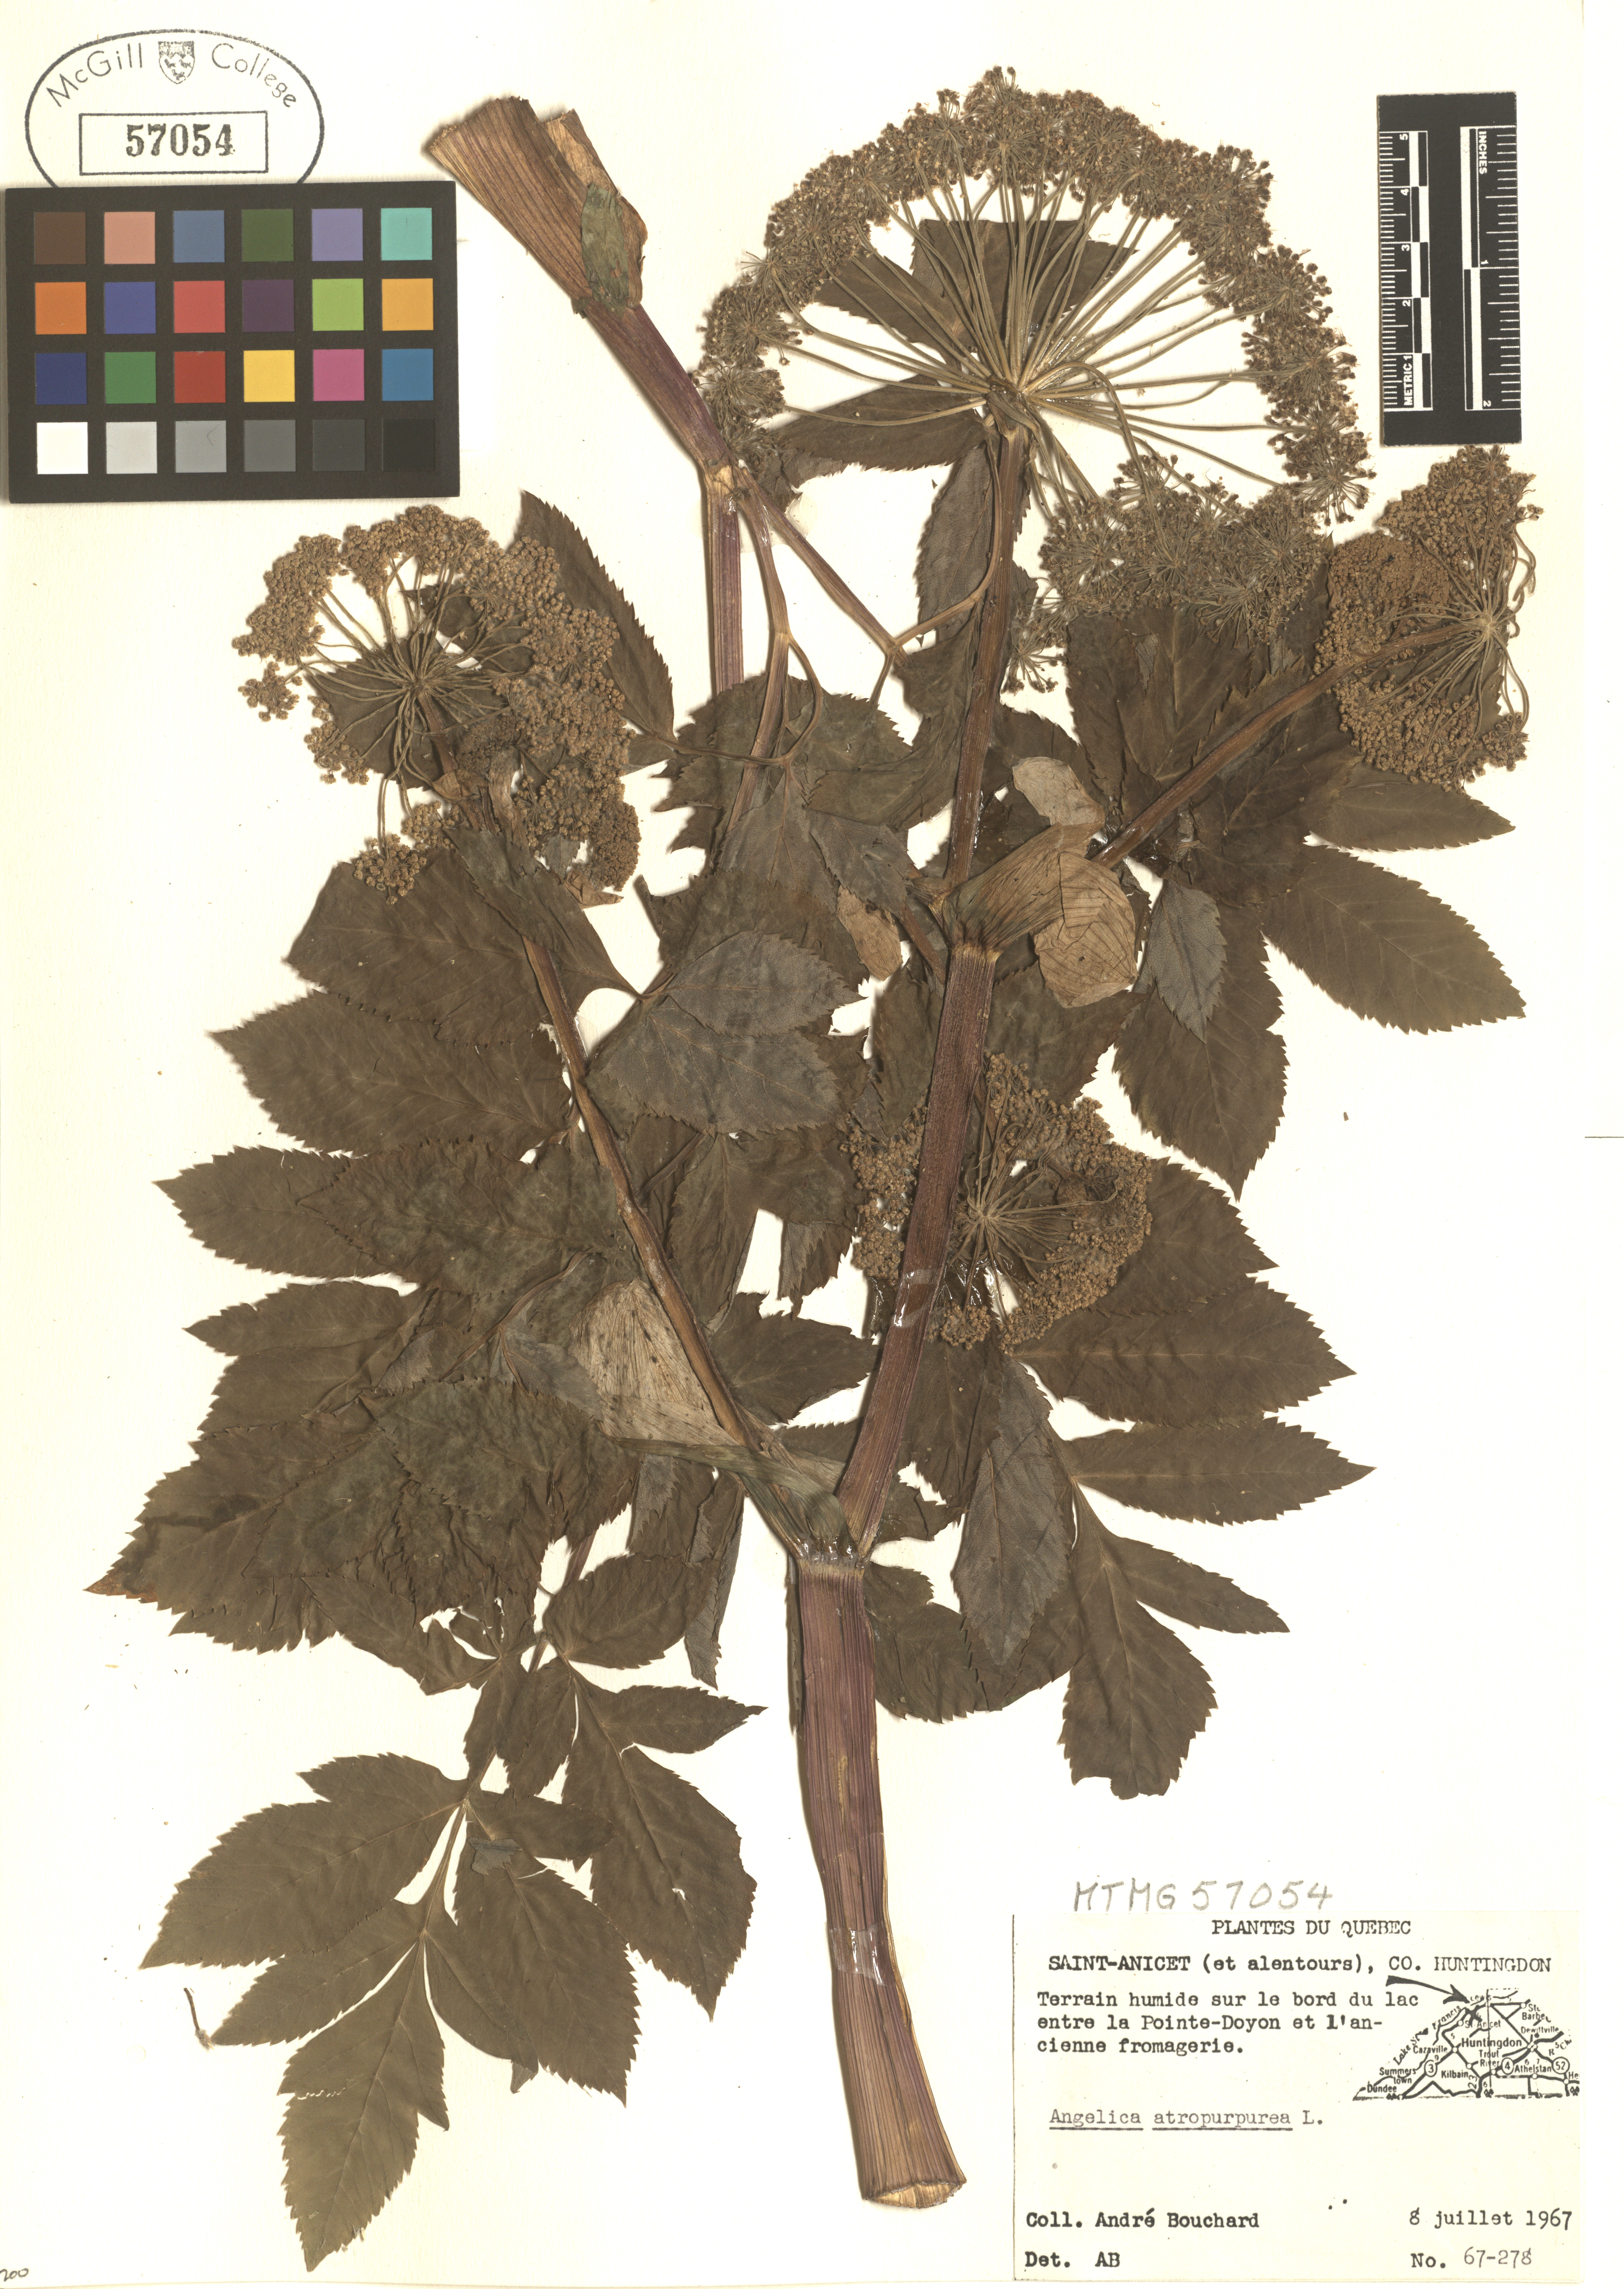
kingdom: Plantae
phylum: Tracheophyta
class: Magnoliopsida
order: Apiales
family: Apiaceae
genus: Angelica
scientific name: Angelica atropurpurea
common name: Great angelica
